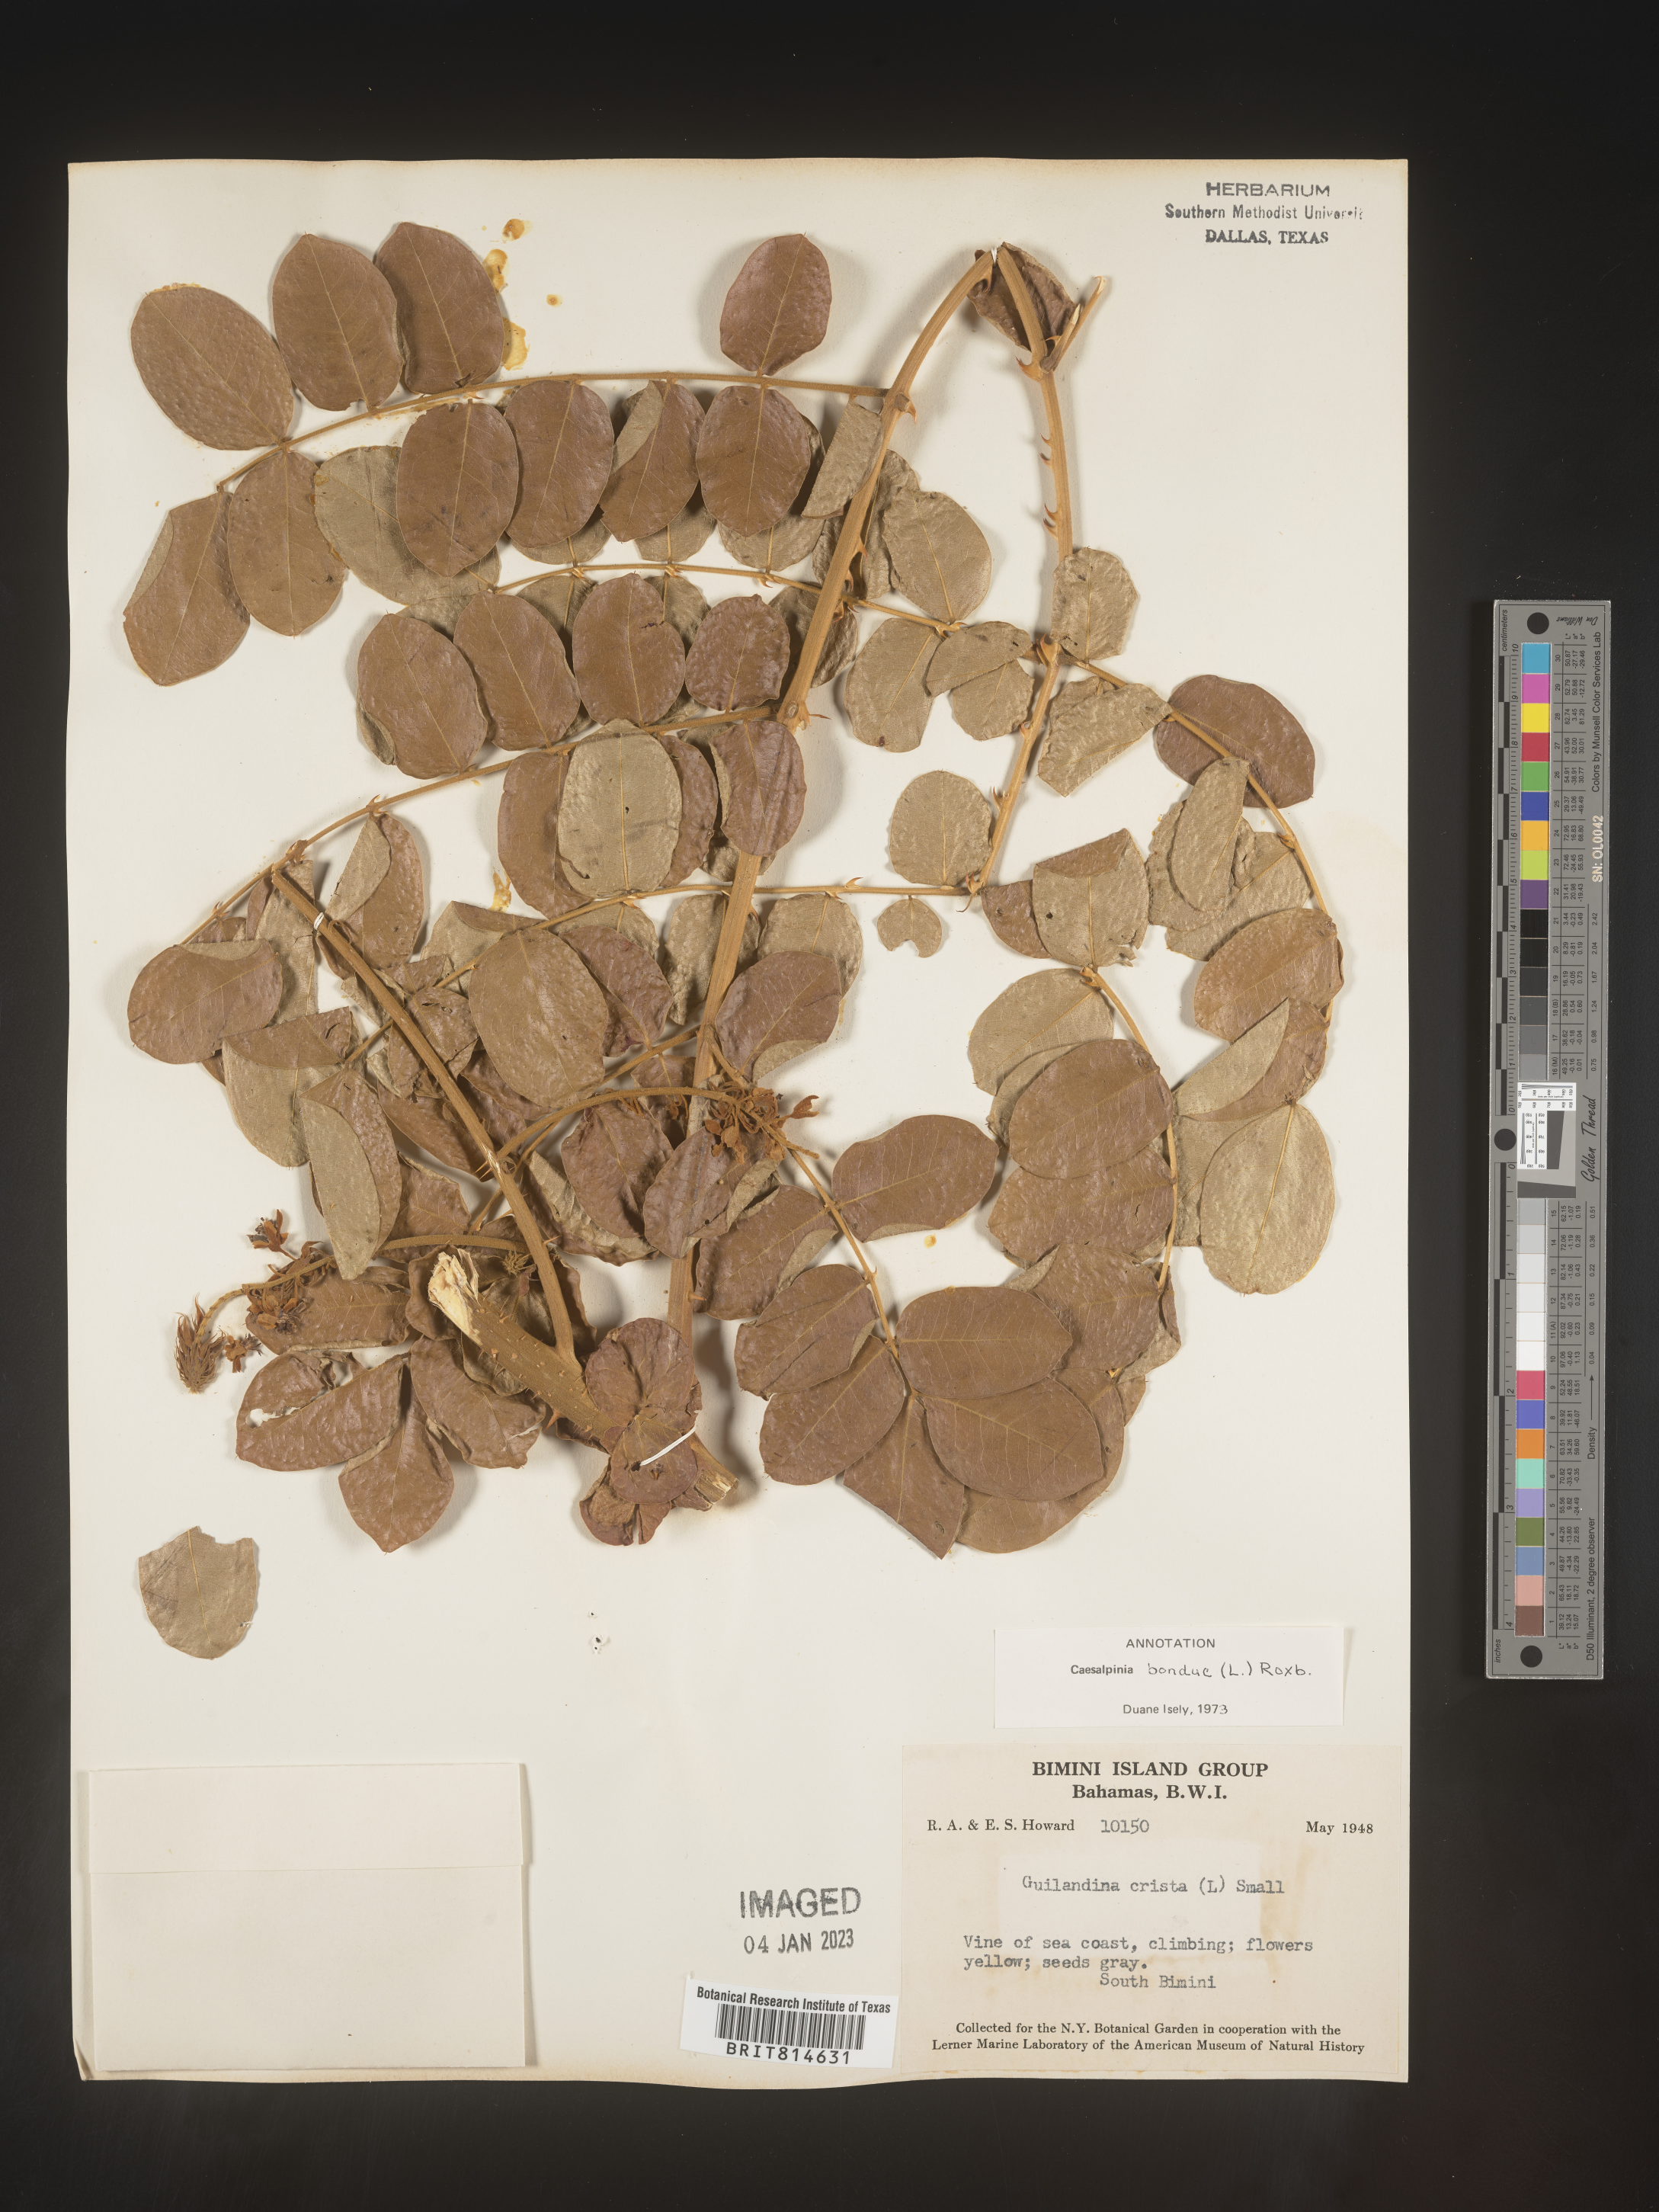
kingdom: Plantae
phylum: Tracheophyta
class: Magnoliopsida
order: Fabales
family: Fabaceae
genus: Caesalpinia
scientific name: Caesalpinia
